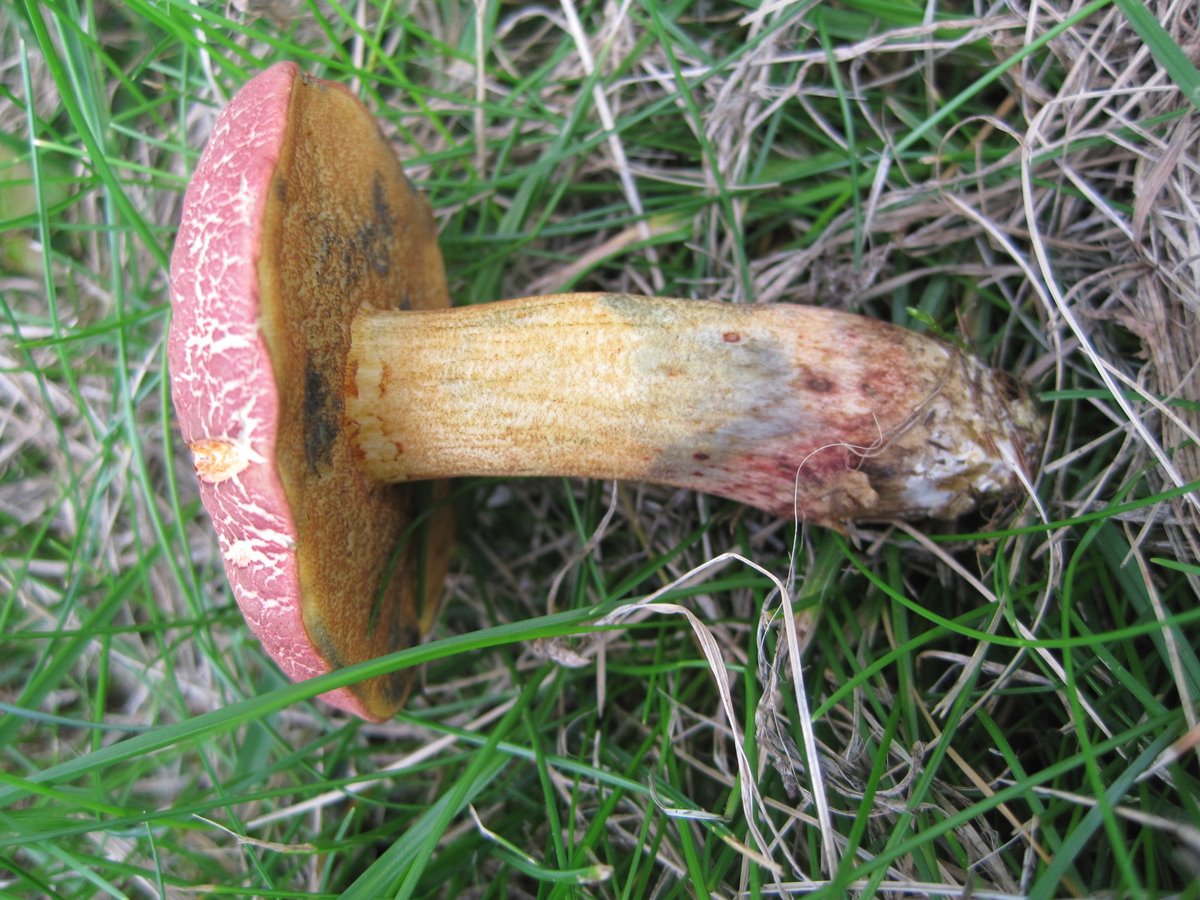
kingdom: Fungi
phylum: Basidiomycota
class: Agaricomycetes
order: Boletales
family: Boletaceae
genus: Xerocomellus
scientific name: Xerocomellus ripariellus
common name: sump-rørhat
